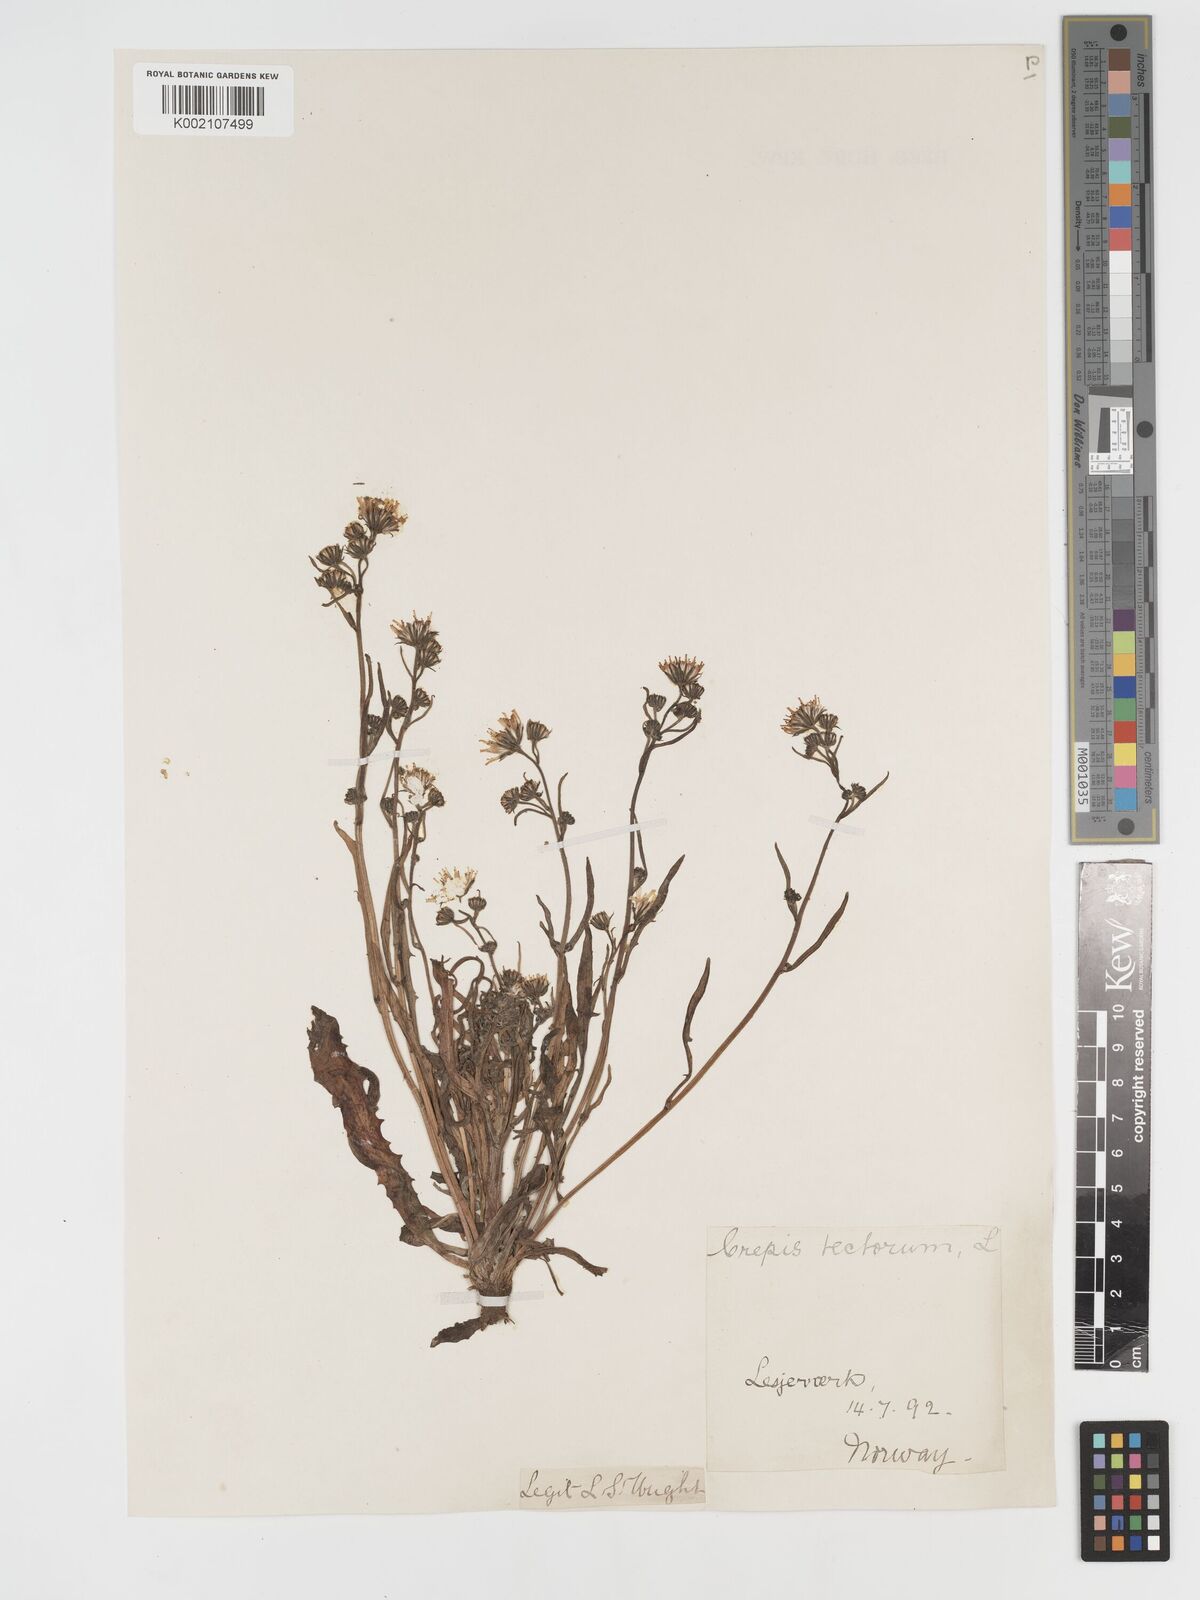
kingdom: Plantae
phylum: Tracheophyta
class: Magnoliopsida
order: Asterales
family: Asteraceae
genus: Crepis
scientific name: Crepis tectorum
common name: Narrow-leaved hawk's-beard
